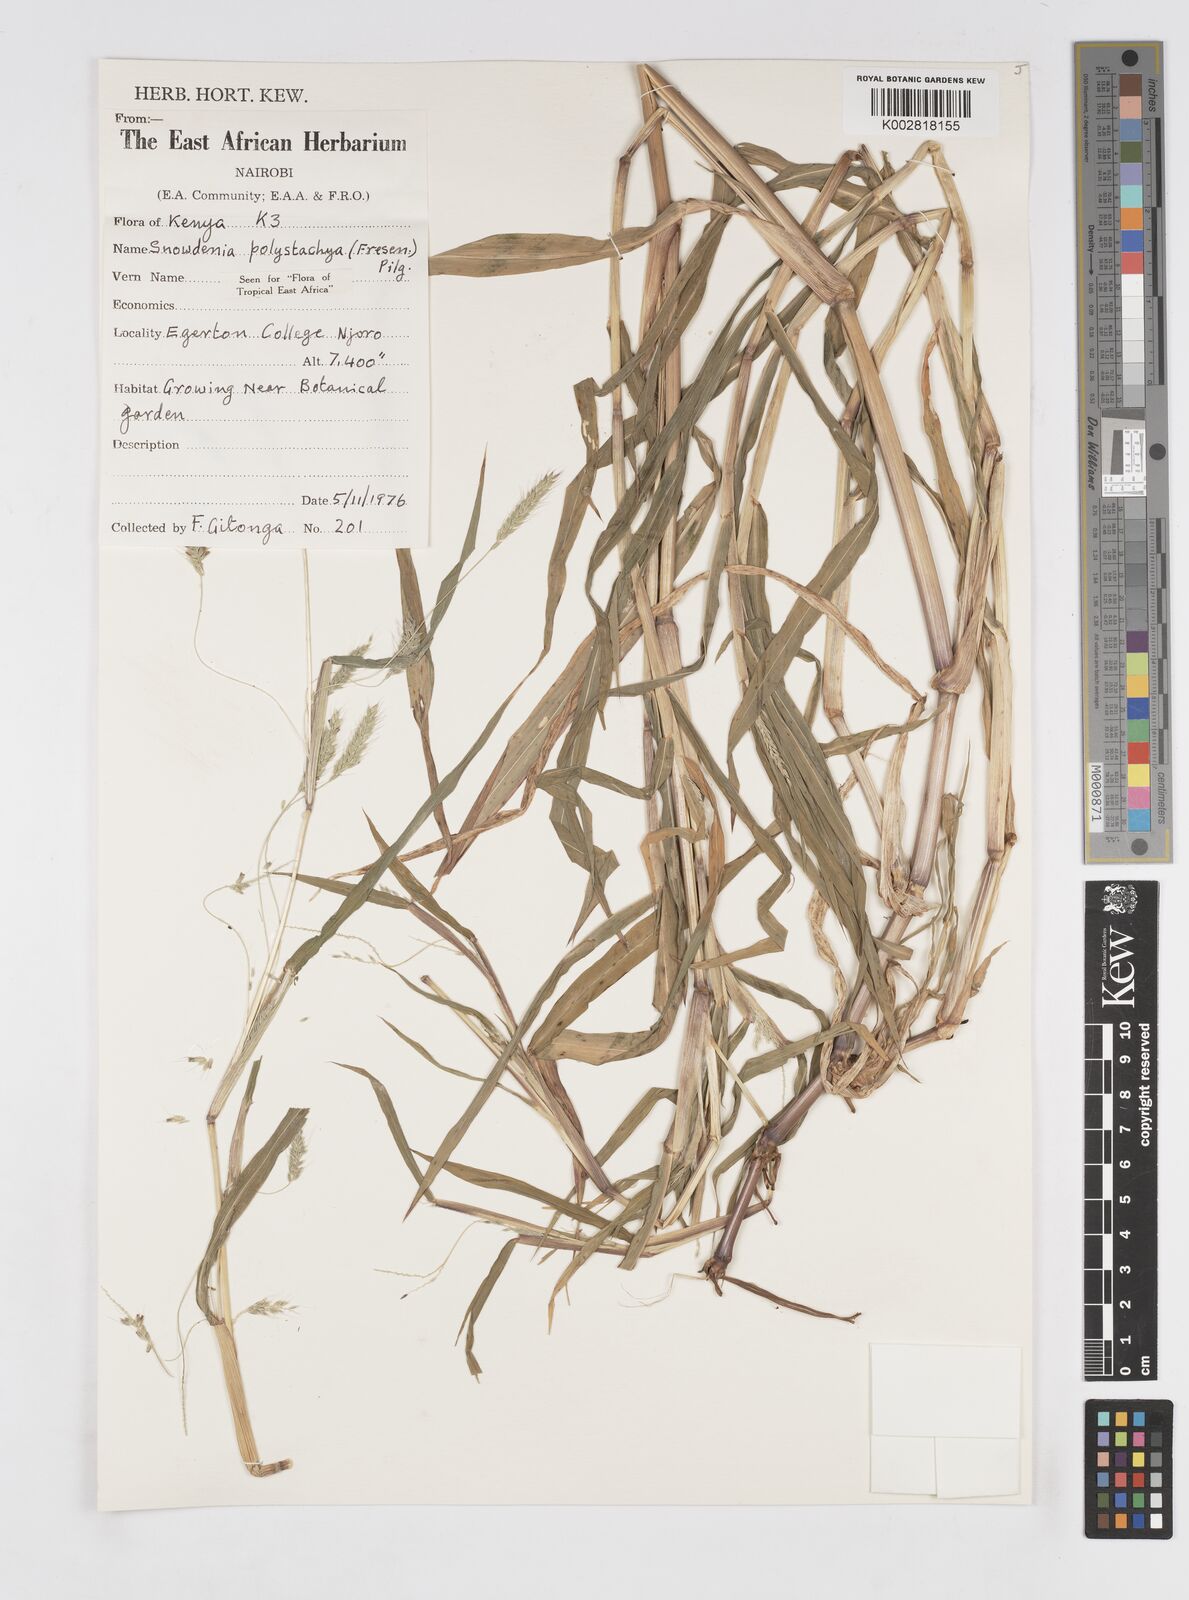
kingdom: Plantae
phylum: Tracheophyta
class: Liliopsida
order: Poales
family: Poaceae
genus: Snowdenia
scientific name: Snowdenia polystachya
